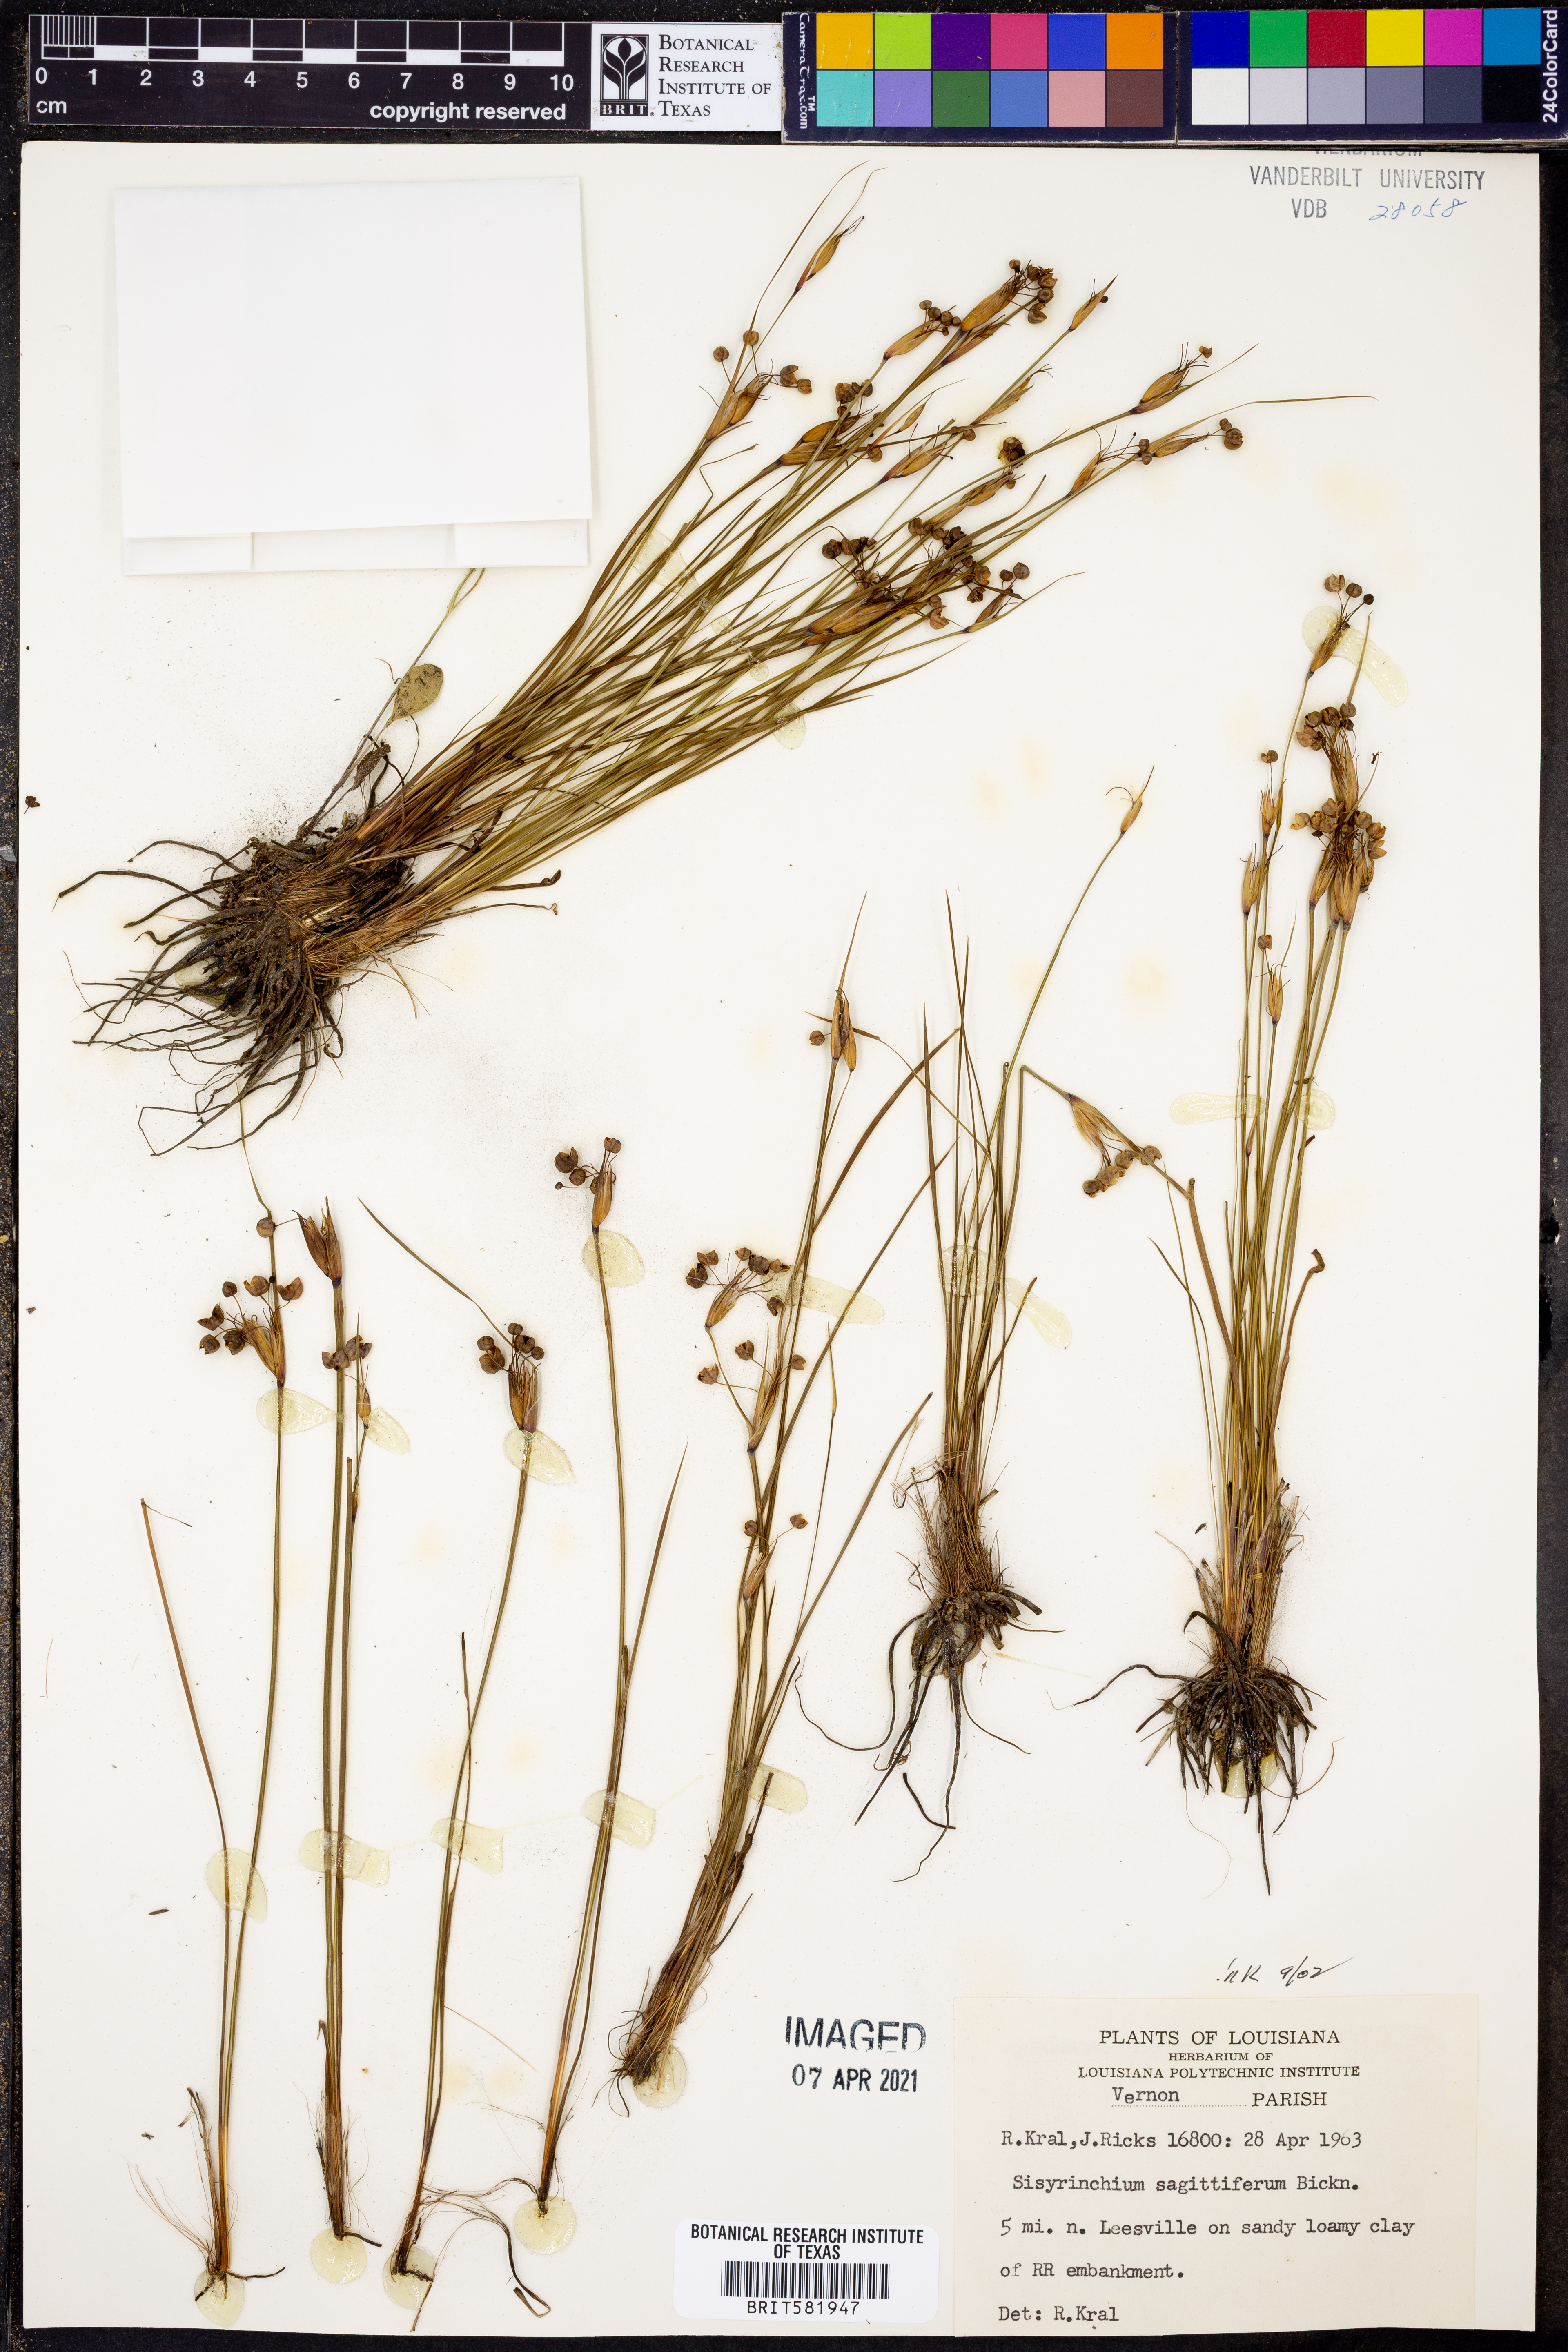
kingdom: Plantae
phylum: Tracheophyta
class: Liliopsida
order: Asparagales
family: Iridaceae
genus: Sisyrinchium
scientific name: Sisyrinchium sagittiferum
